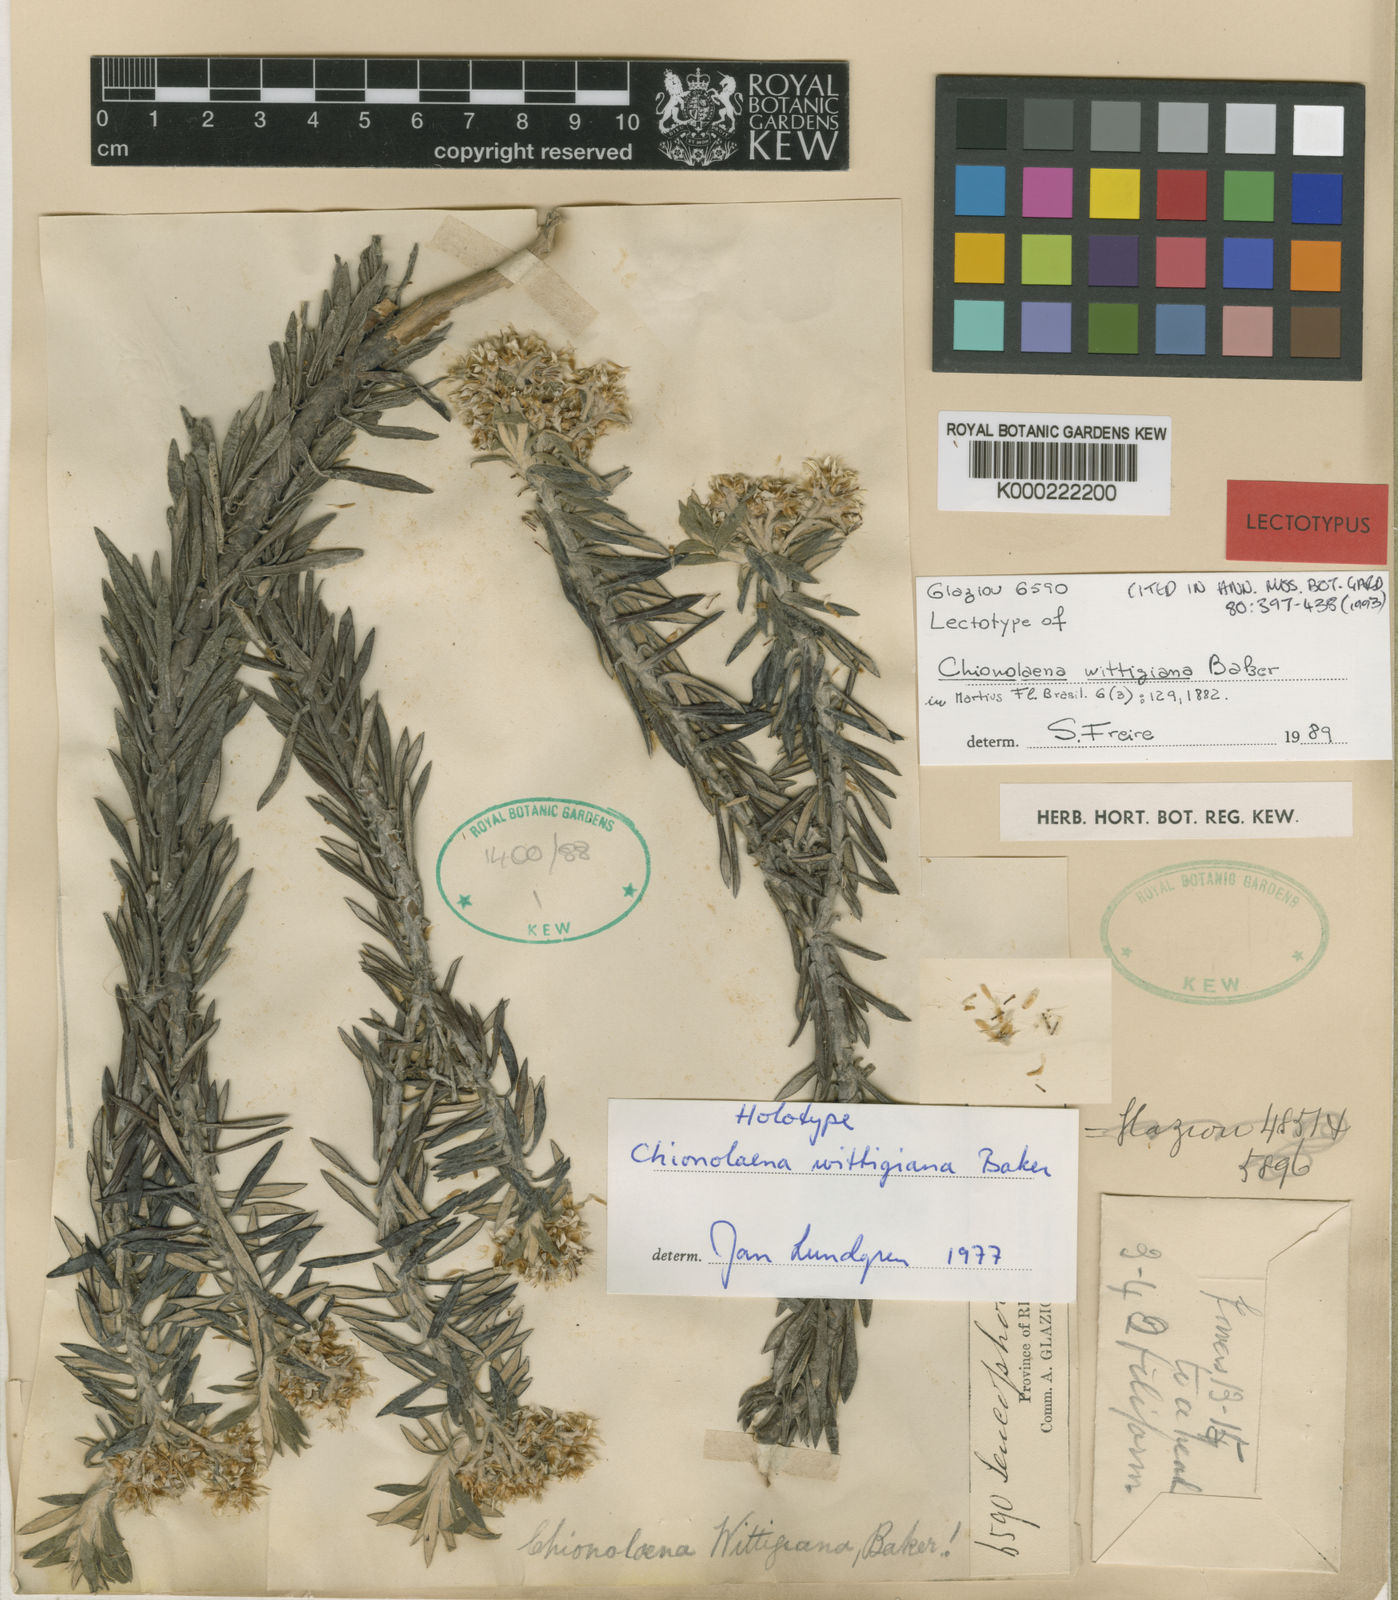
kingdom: Plantae
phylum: Tracheophyta
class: Magnoliopsida
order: Asterales
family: Asteraceae
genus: Chionolaena
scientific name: Chionolaena wittigiana
